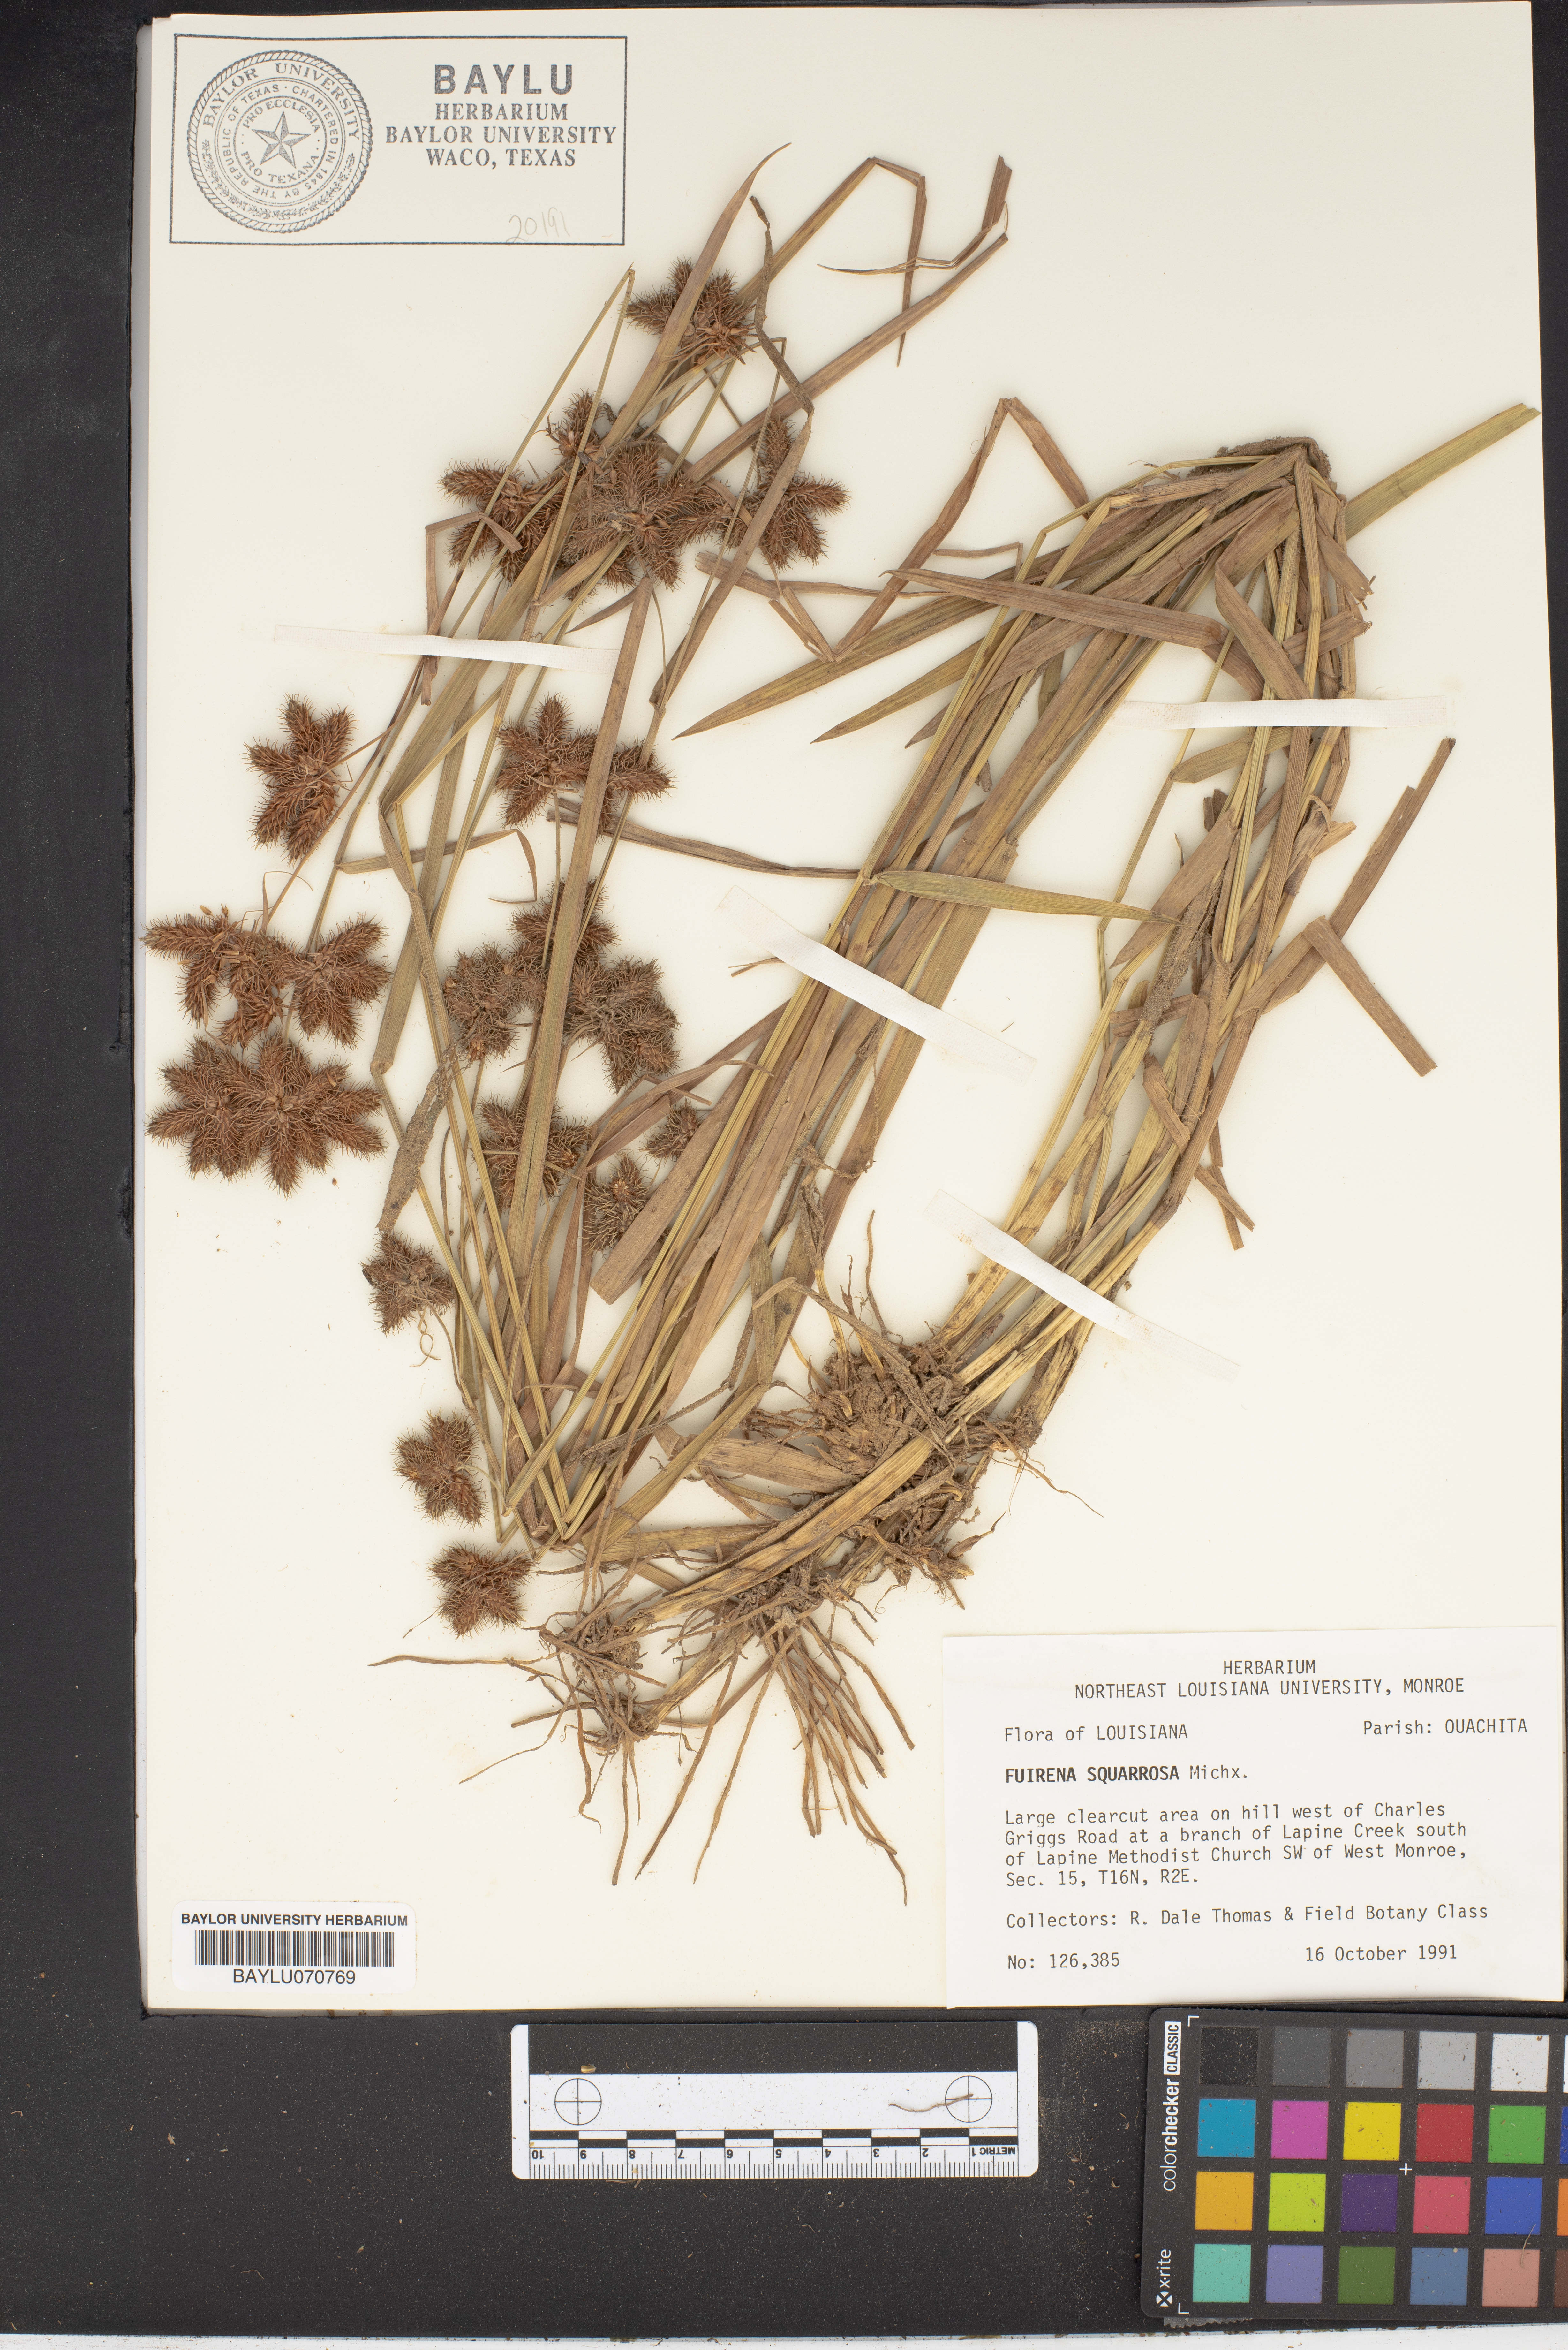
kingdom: Plantae
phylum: Tracheophyta
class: Liliopsida
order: Poales
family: Cyperaceae
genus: Fuirena
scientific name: Fuirena squarrosa
